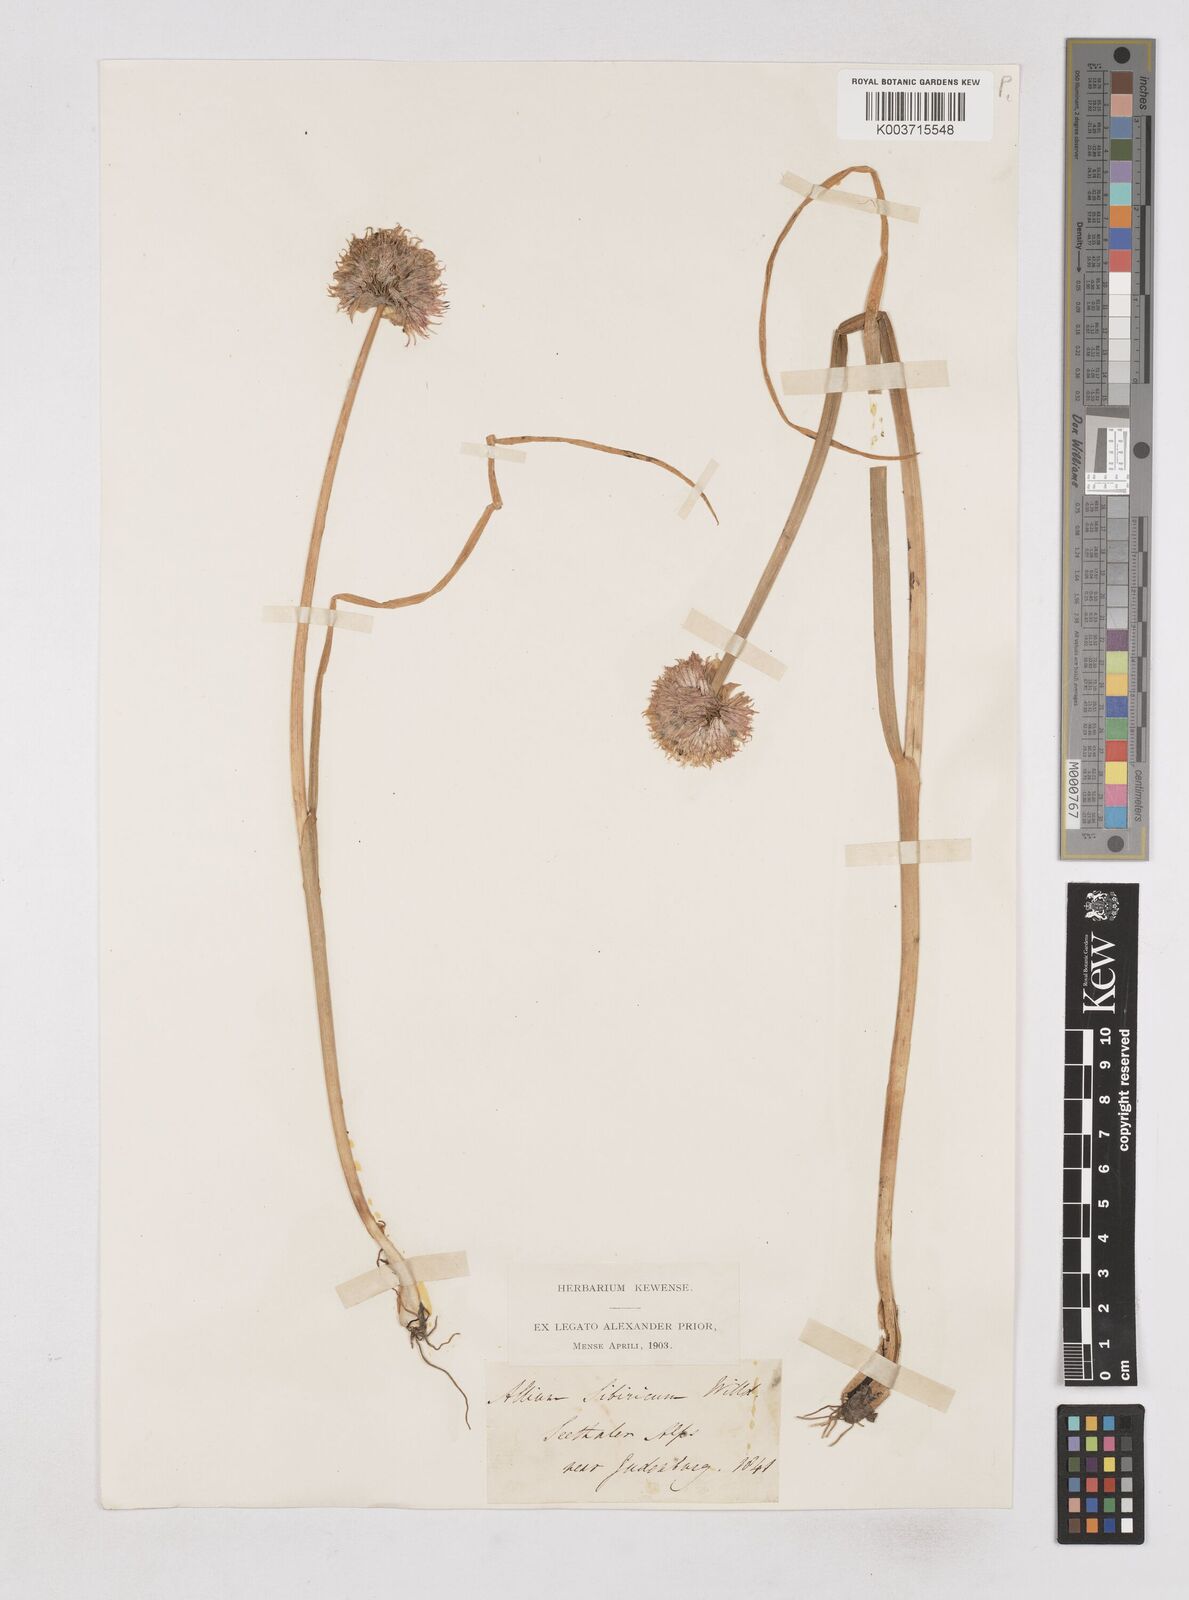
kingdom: Plantae
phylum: Tracheophyta
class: Liliopsida
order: Asparagales
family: Amaryllidaceae
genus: Allium
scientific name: Allium schoenoprasum
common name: Chives
